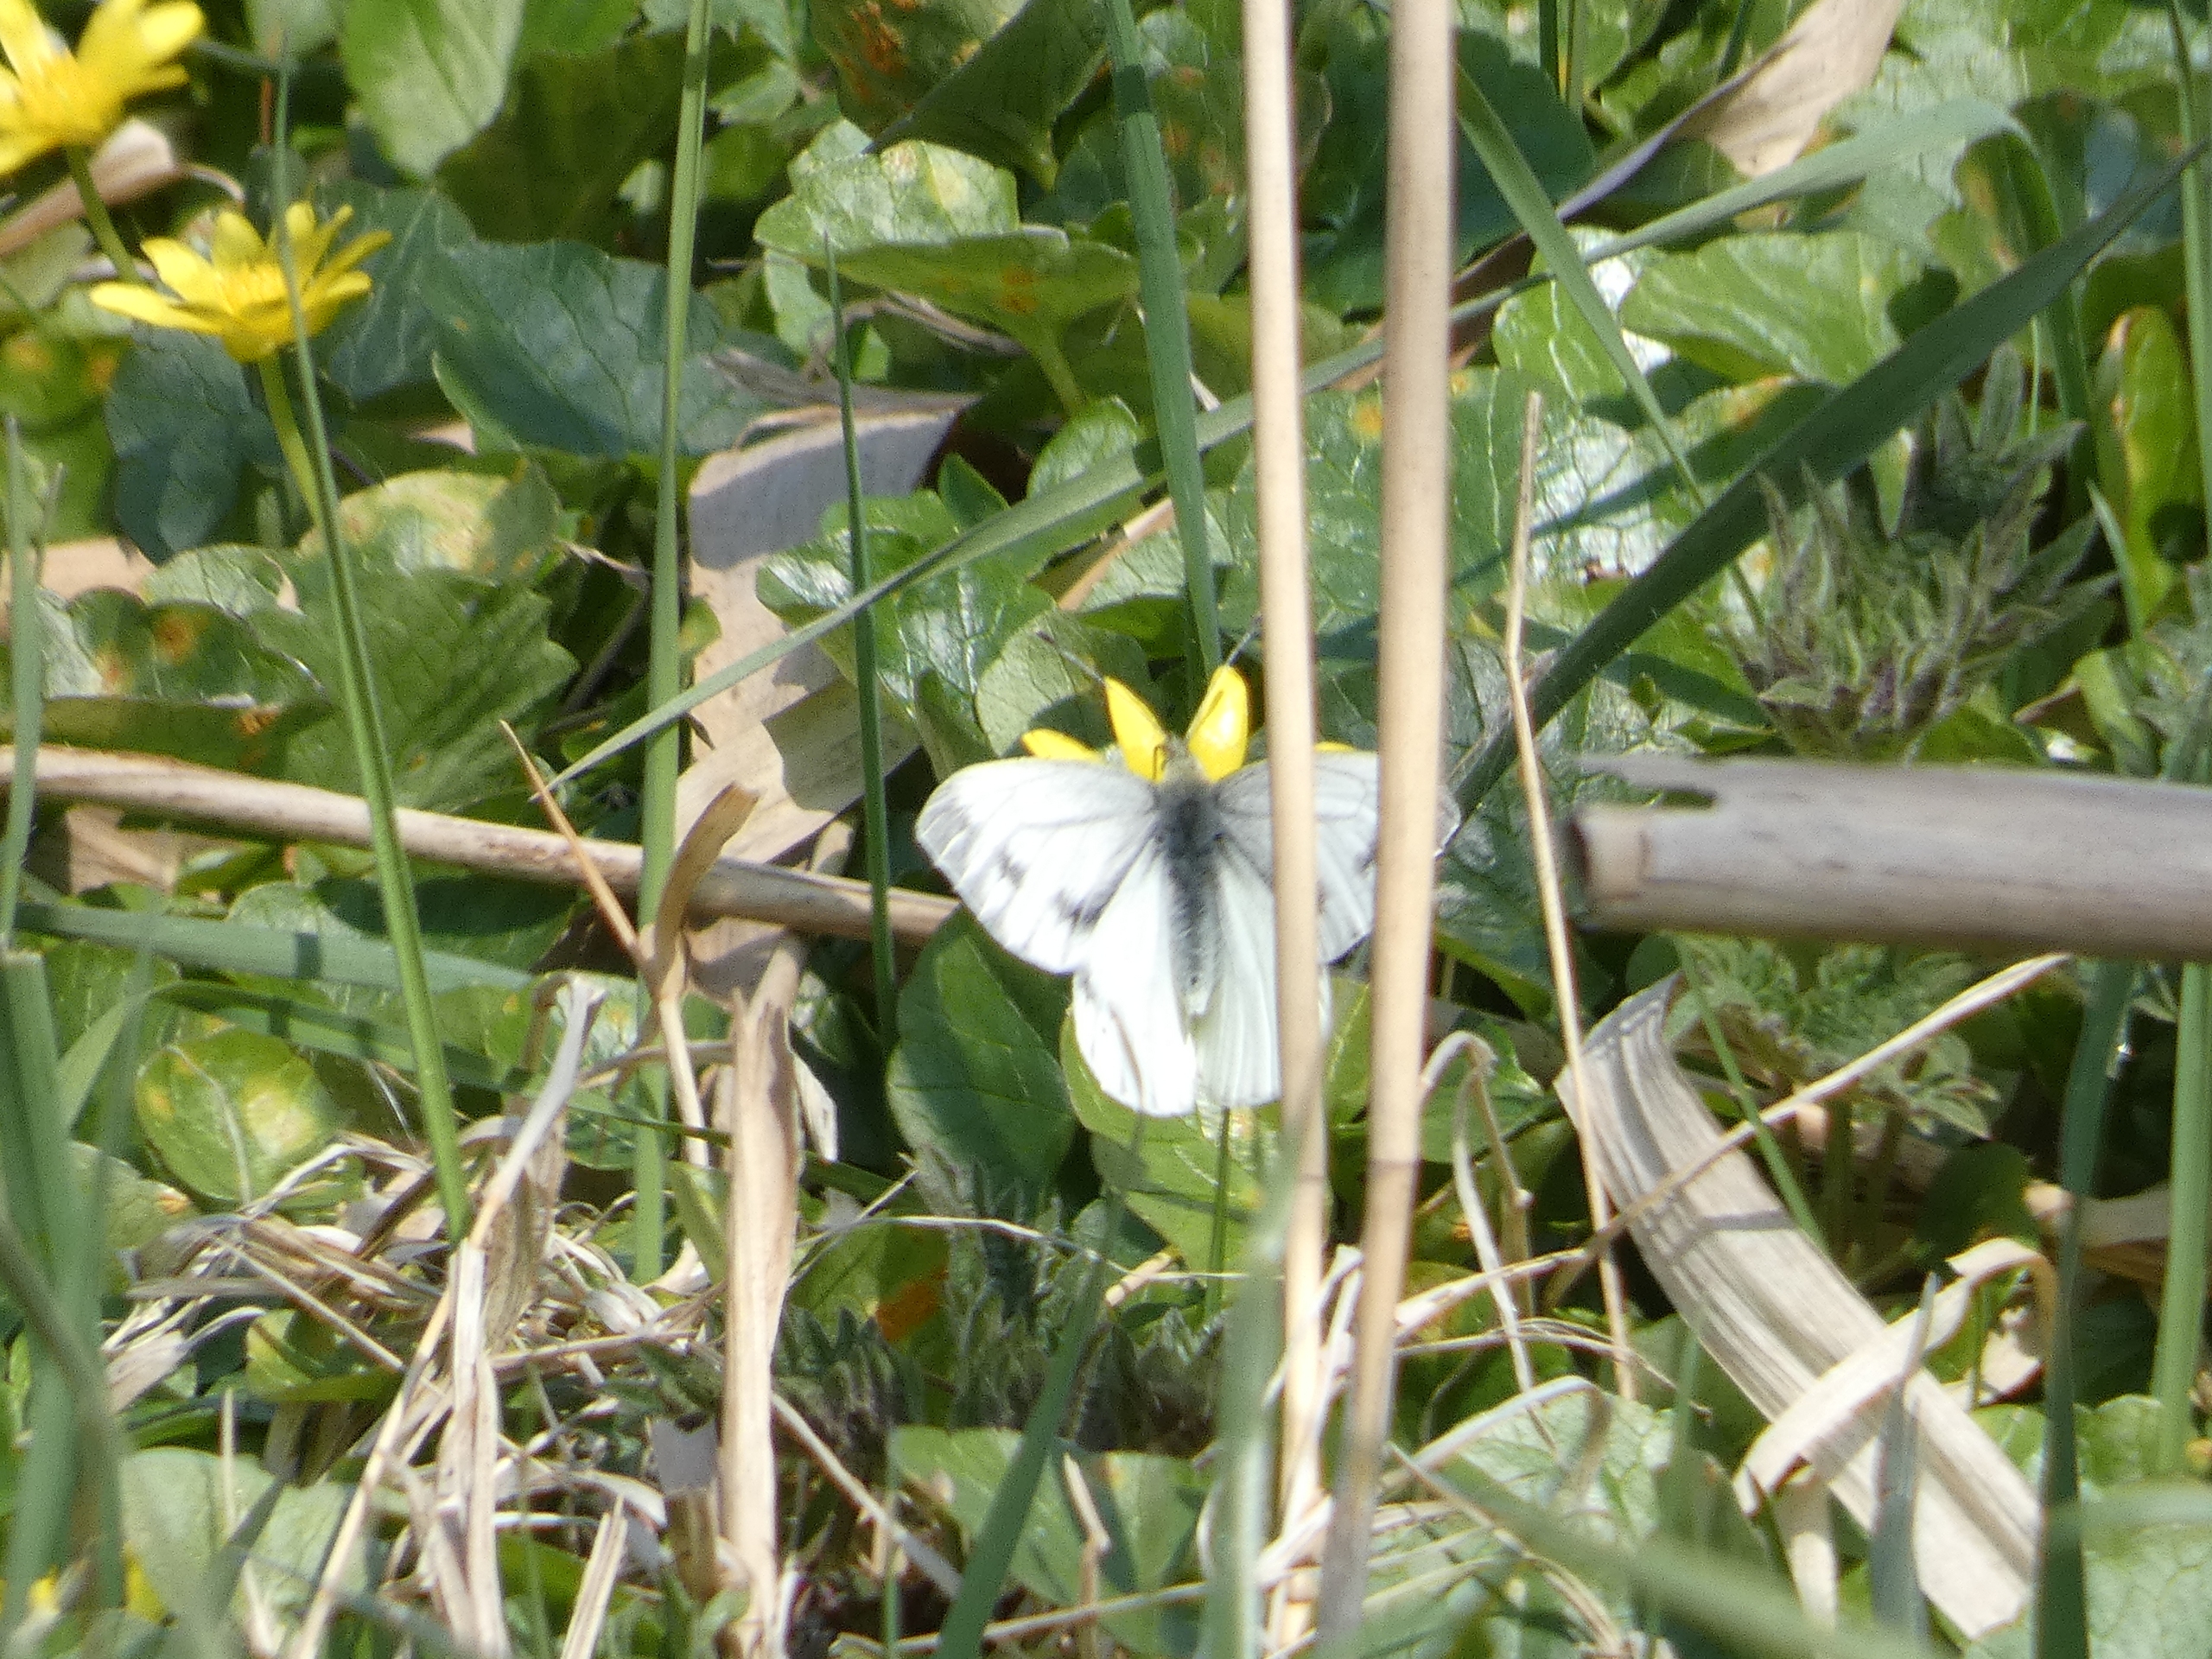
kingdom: Animalia
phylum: Arthropoda
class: Insecta
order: Lepidoptera
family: Pieridae
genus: Pieris
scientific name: Pieris napi
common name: Grønåret kålsommerfugl
